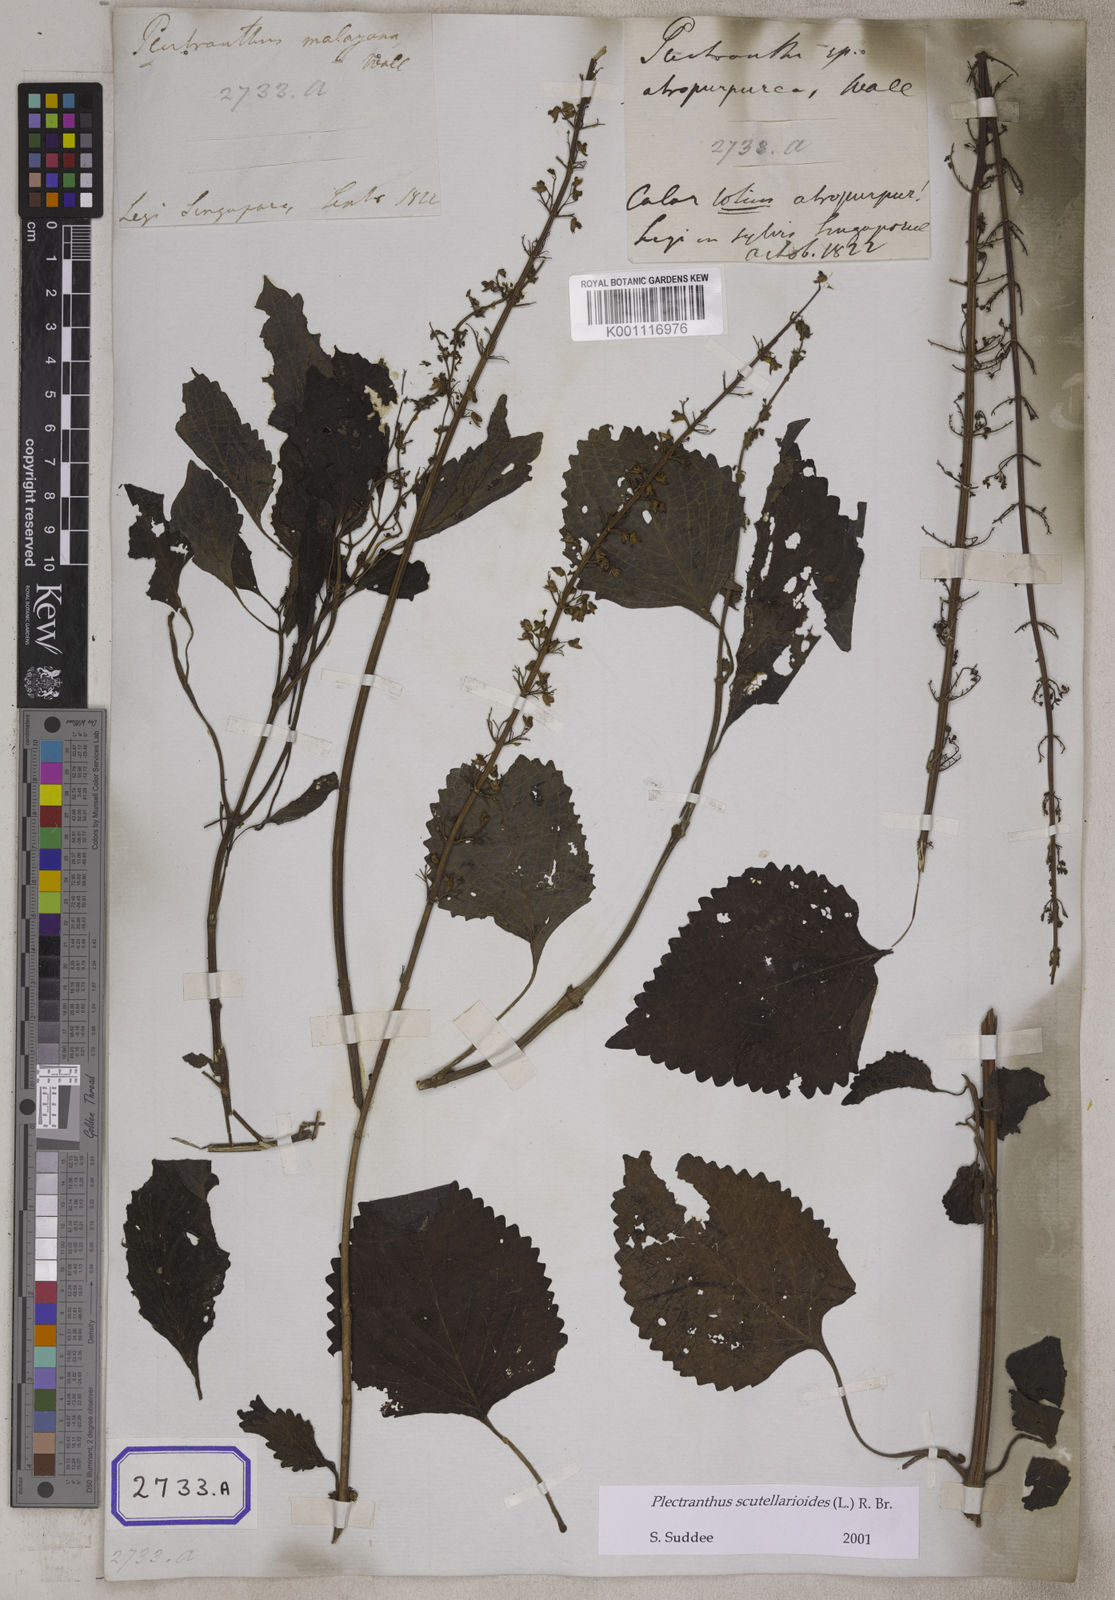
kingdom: Plantae
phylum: Tracheophyta
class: Magnoliopsida
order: Lamiales
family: Lamiaceae
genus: Coleus
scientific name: Coleus scutellarioides
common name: Coleus
